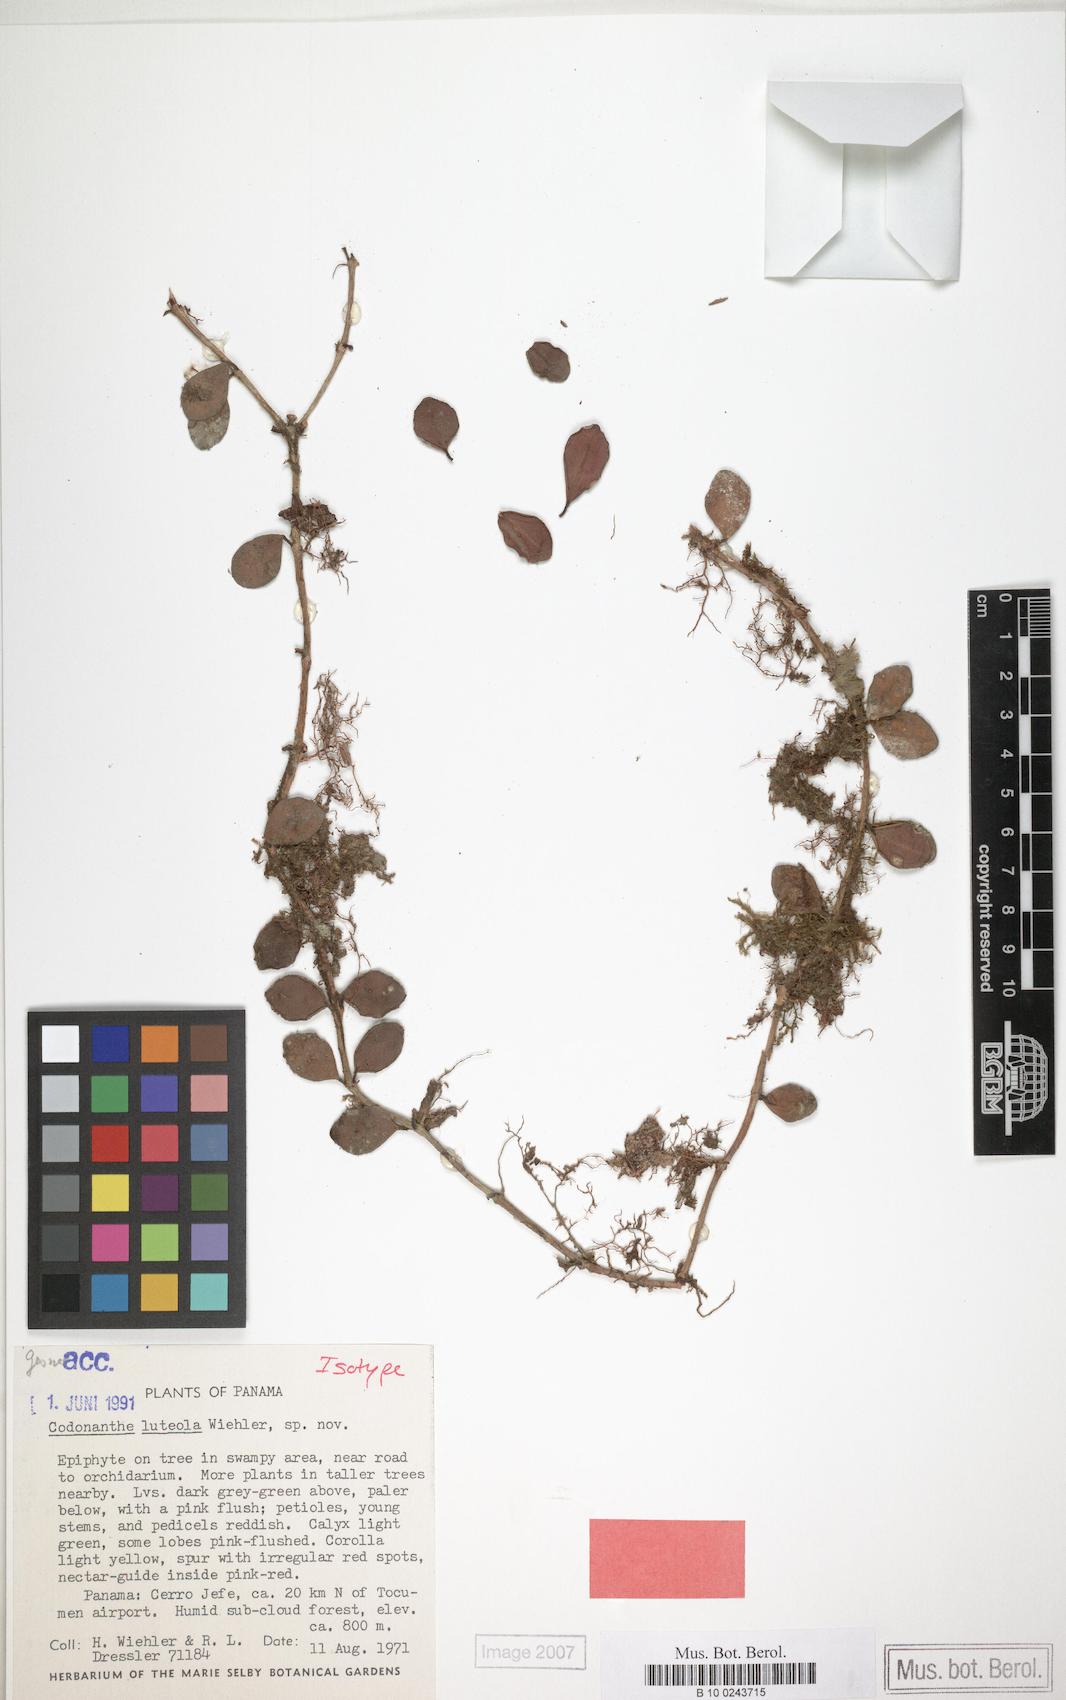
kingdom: Plantae
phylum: Tracheophyta
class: Magnoliopsida
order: Lamiales
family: Gesneriaceae
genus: Codonanthopsis
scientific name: Codonanthopsis luteola
